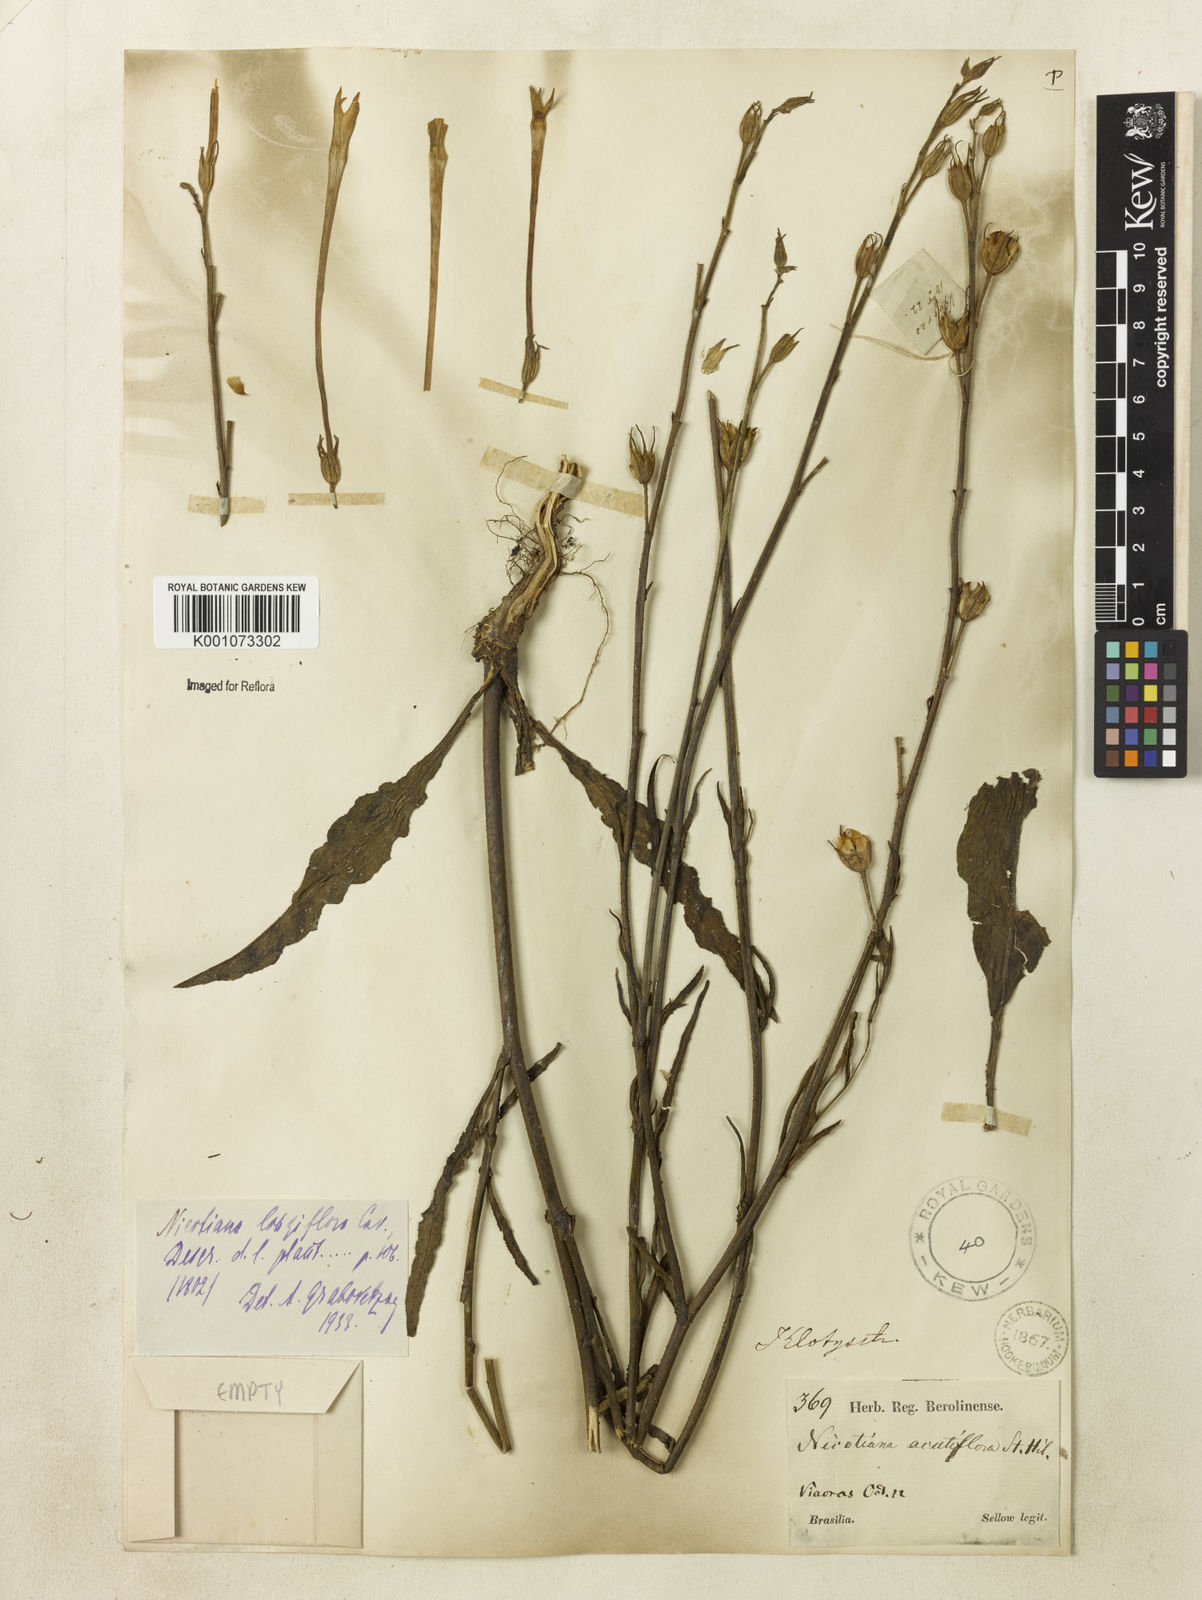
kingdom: Plantae
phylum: Tracheophyta
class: Magnoliopsida
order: Solanales
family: Solanaceae
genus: Nicotiana
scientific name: Nicotiana longiflora
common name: Long-flowered tobacco
